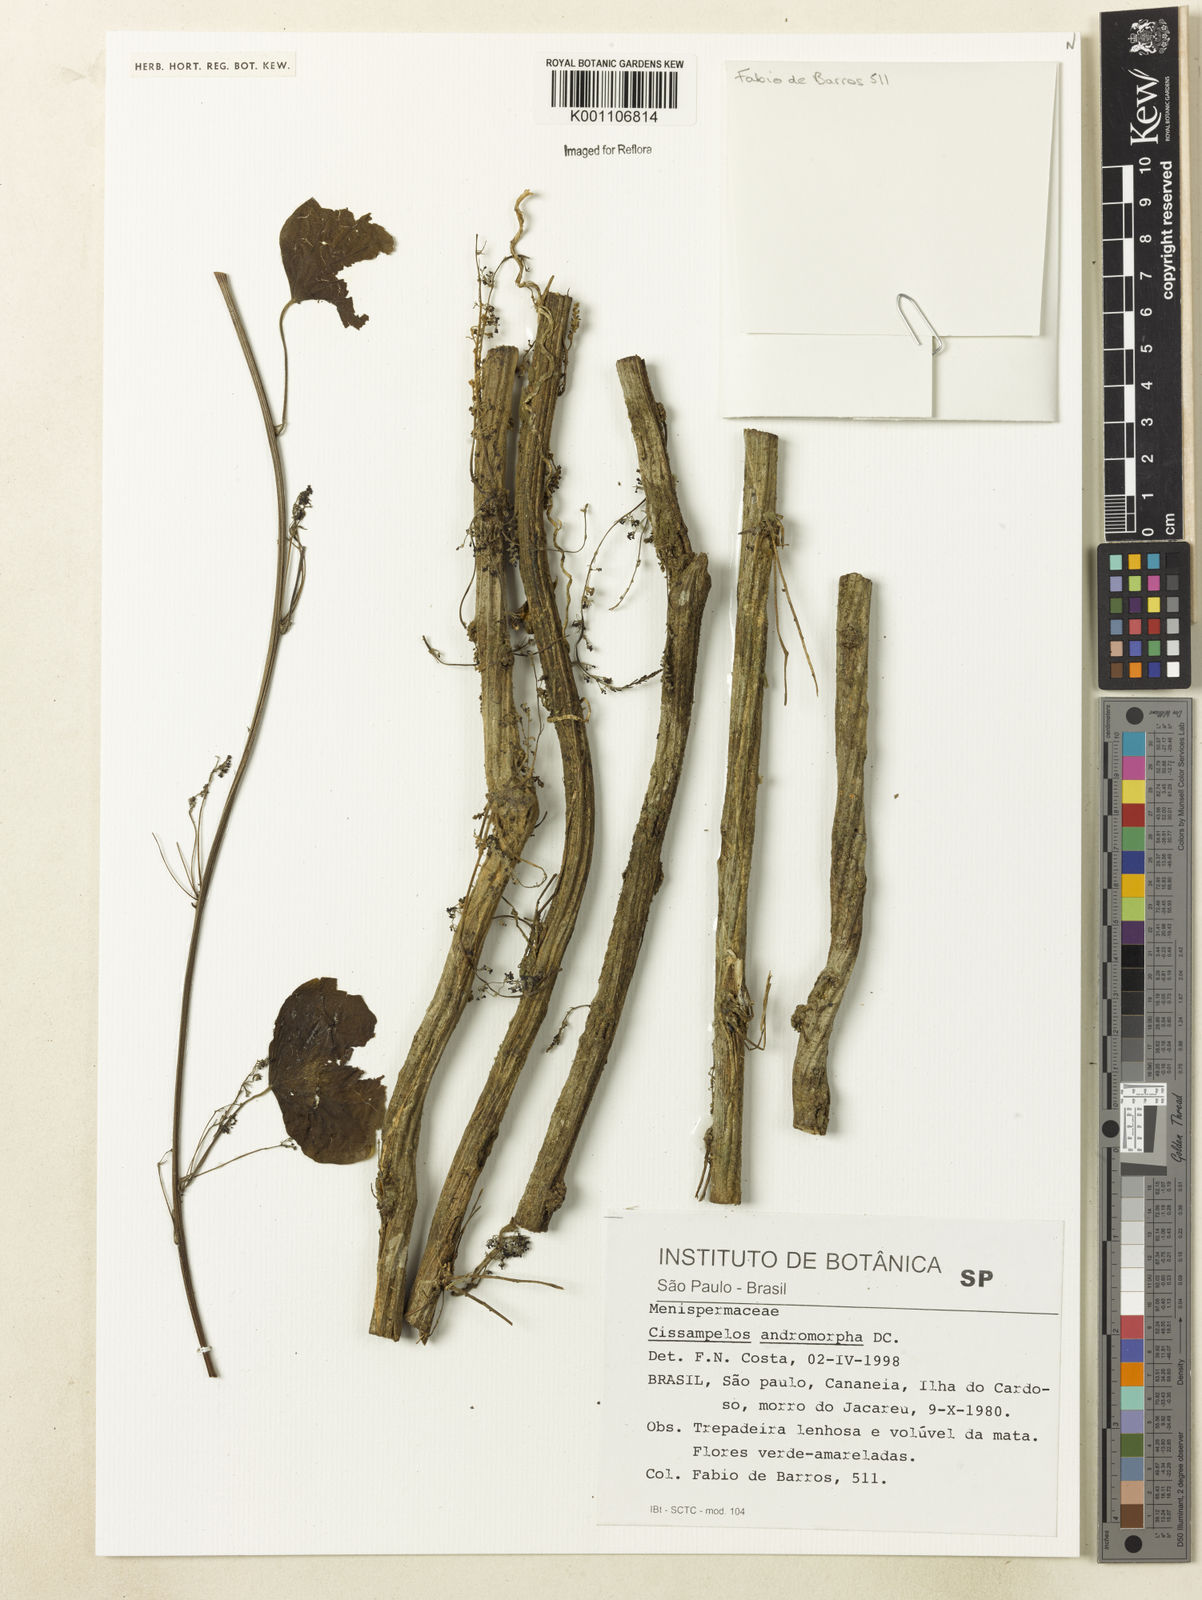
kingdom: Plantae
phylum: Tracheophyta
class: Magnoliopsida
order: Ranunculales
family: Menispermaceae
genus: Cissampelos
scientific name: Cissampelos andromorpha
